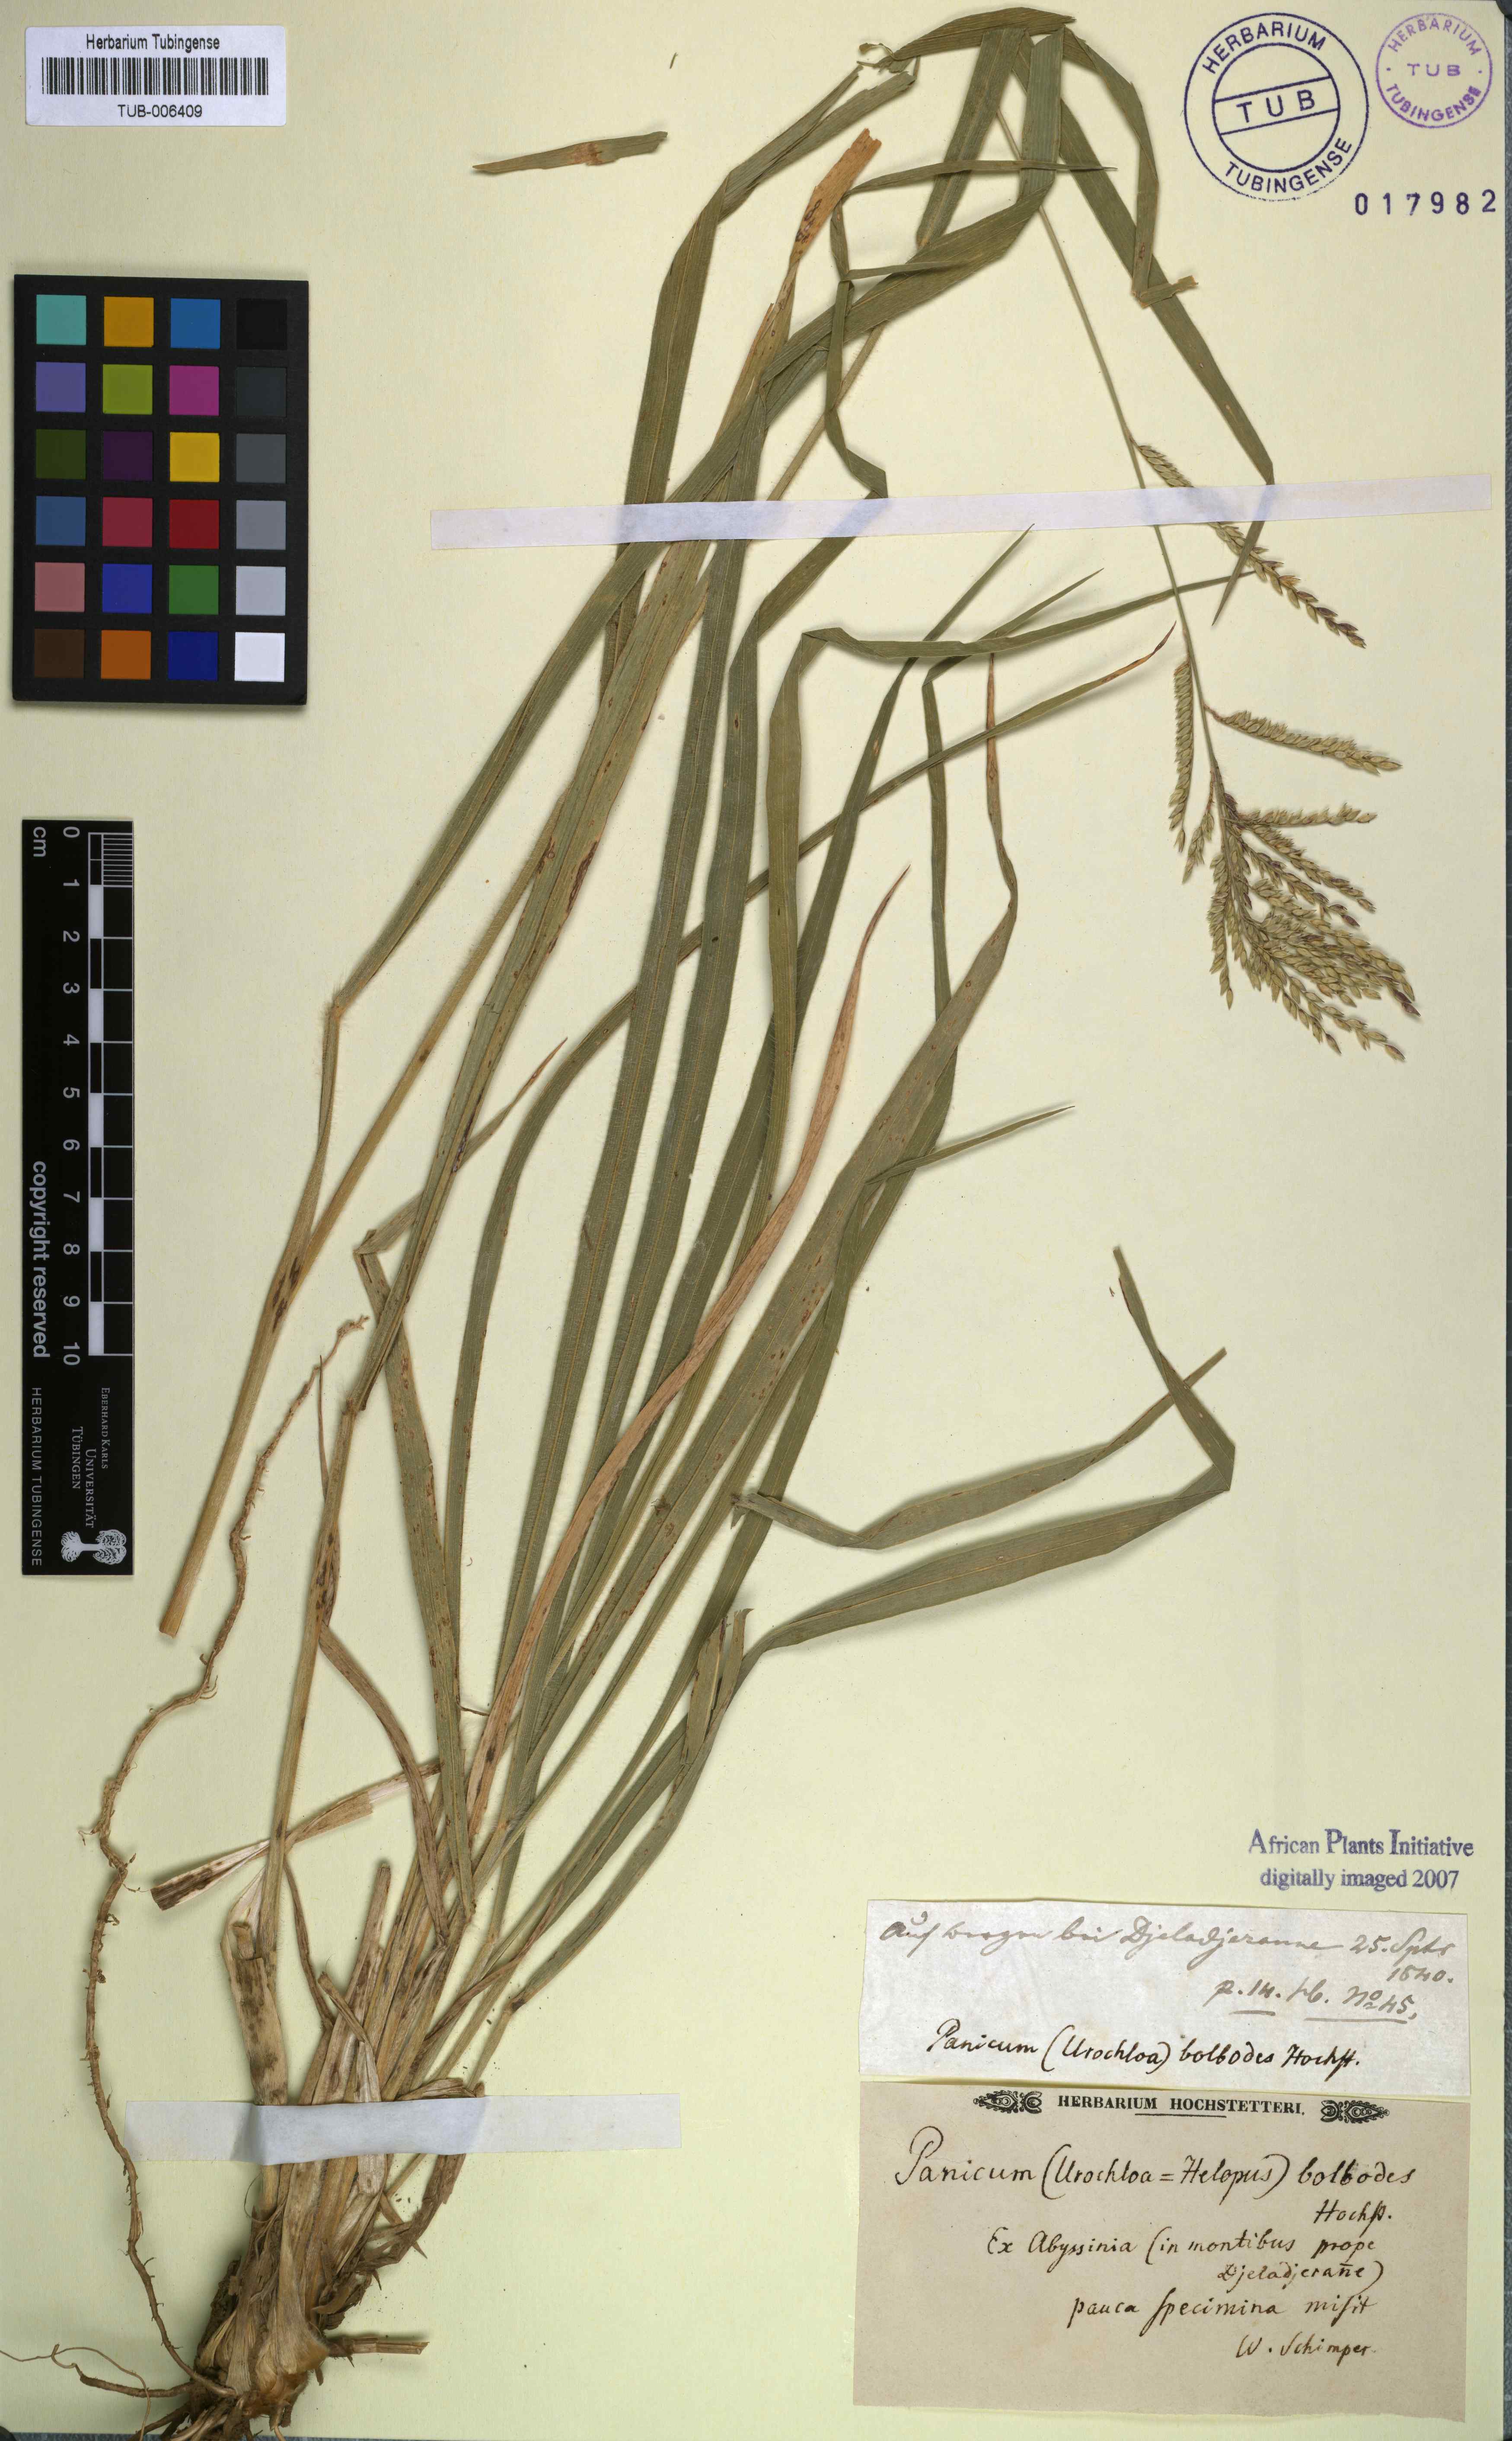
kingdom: Plantae
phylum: Tracheophyta
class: Liliopsida
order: Poales
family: Poaceae
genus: Urochloa
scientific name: Urochloa oligotricha
